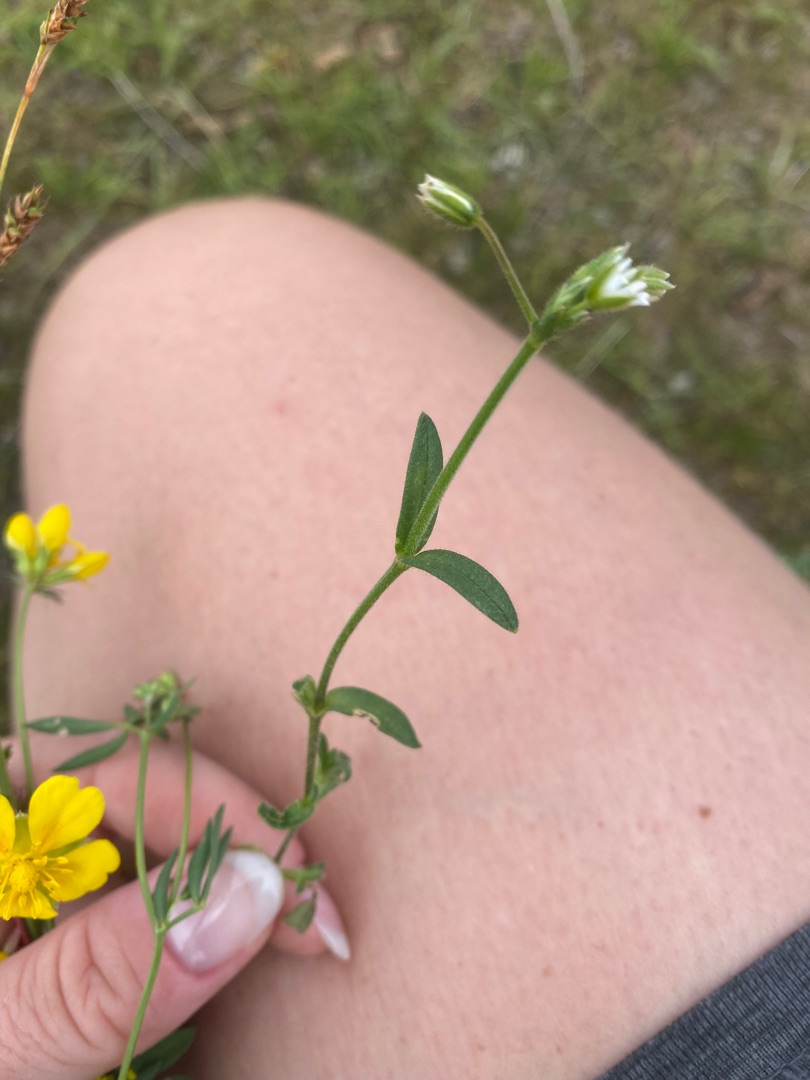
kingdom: Plantae
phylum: Tracheophyta
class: Magnoliopsida
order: Caryophyllales
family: Caryophyllaceae
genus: Cerastium
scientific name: Cerastium fontanum
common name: Almindelig hønsetarm
